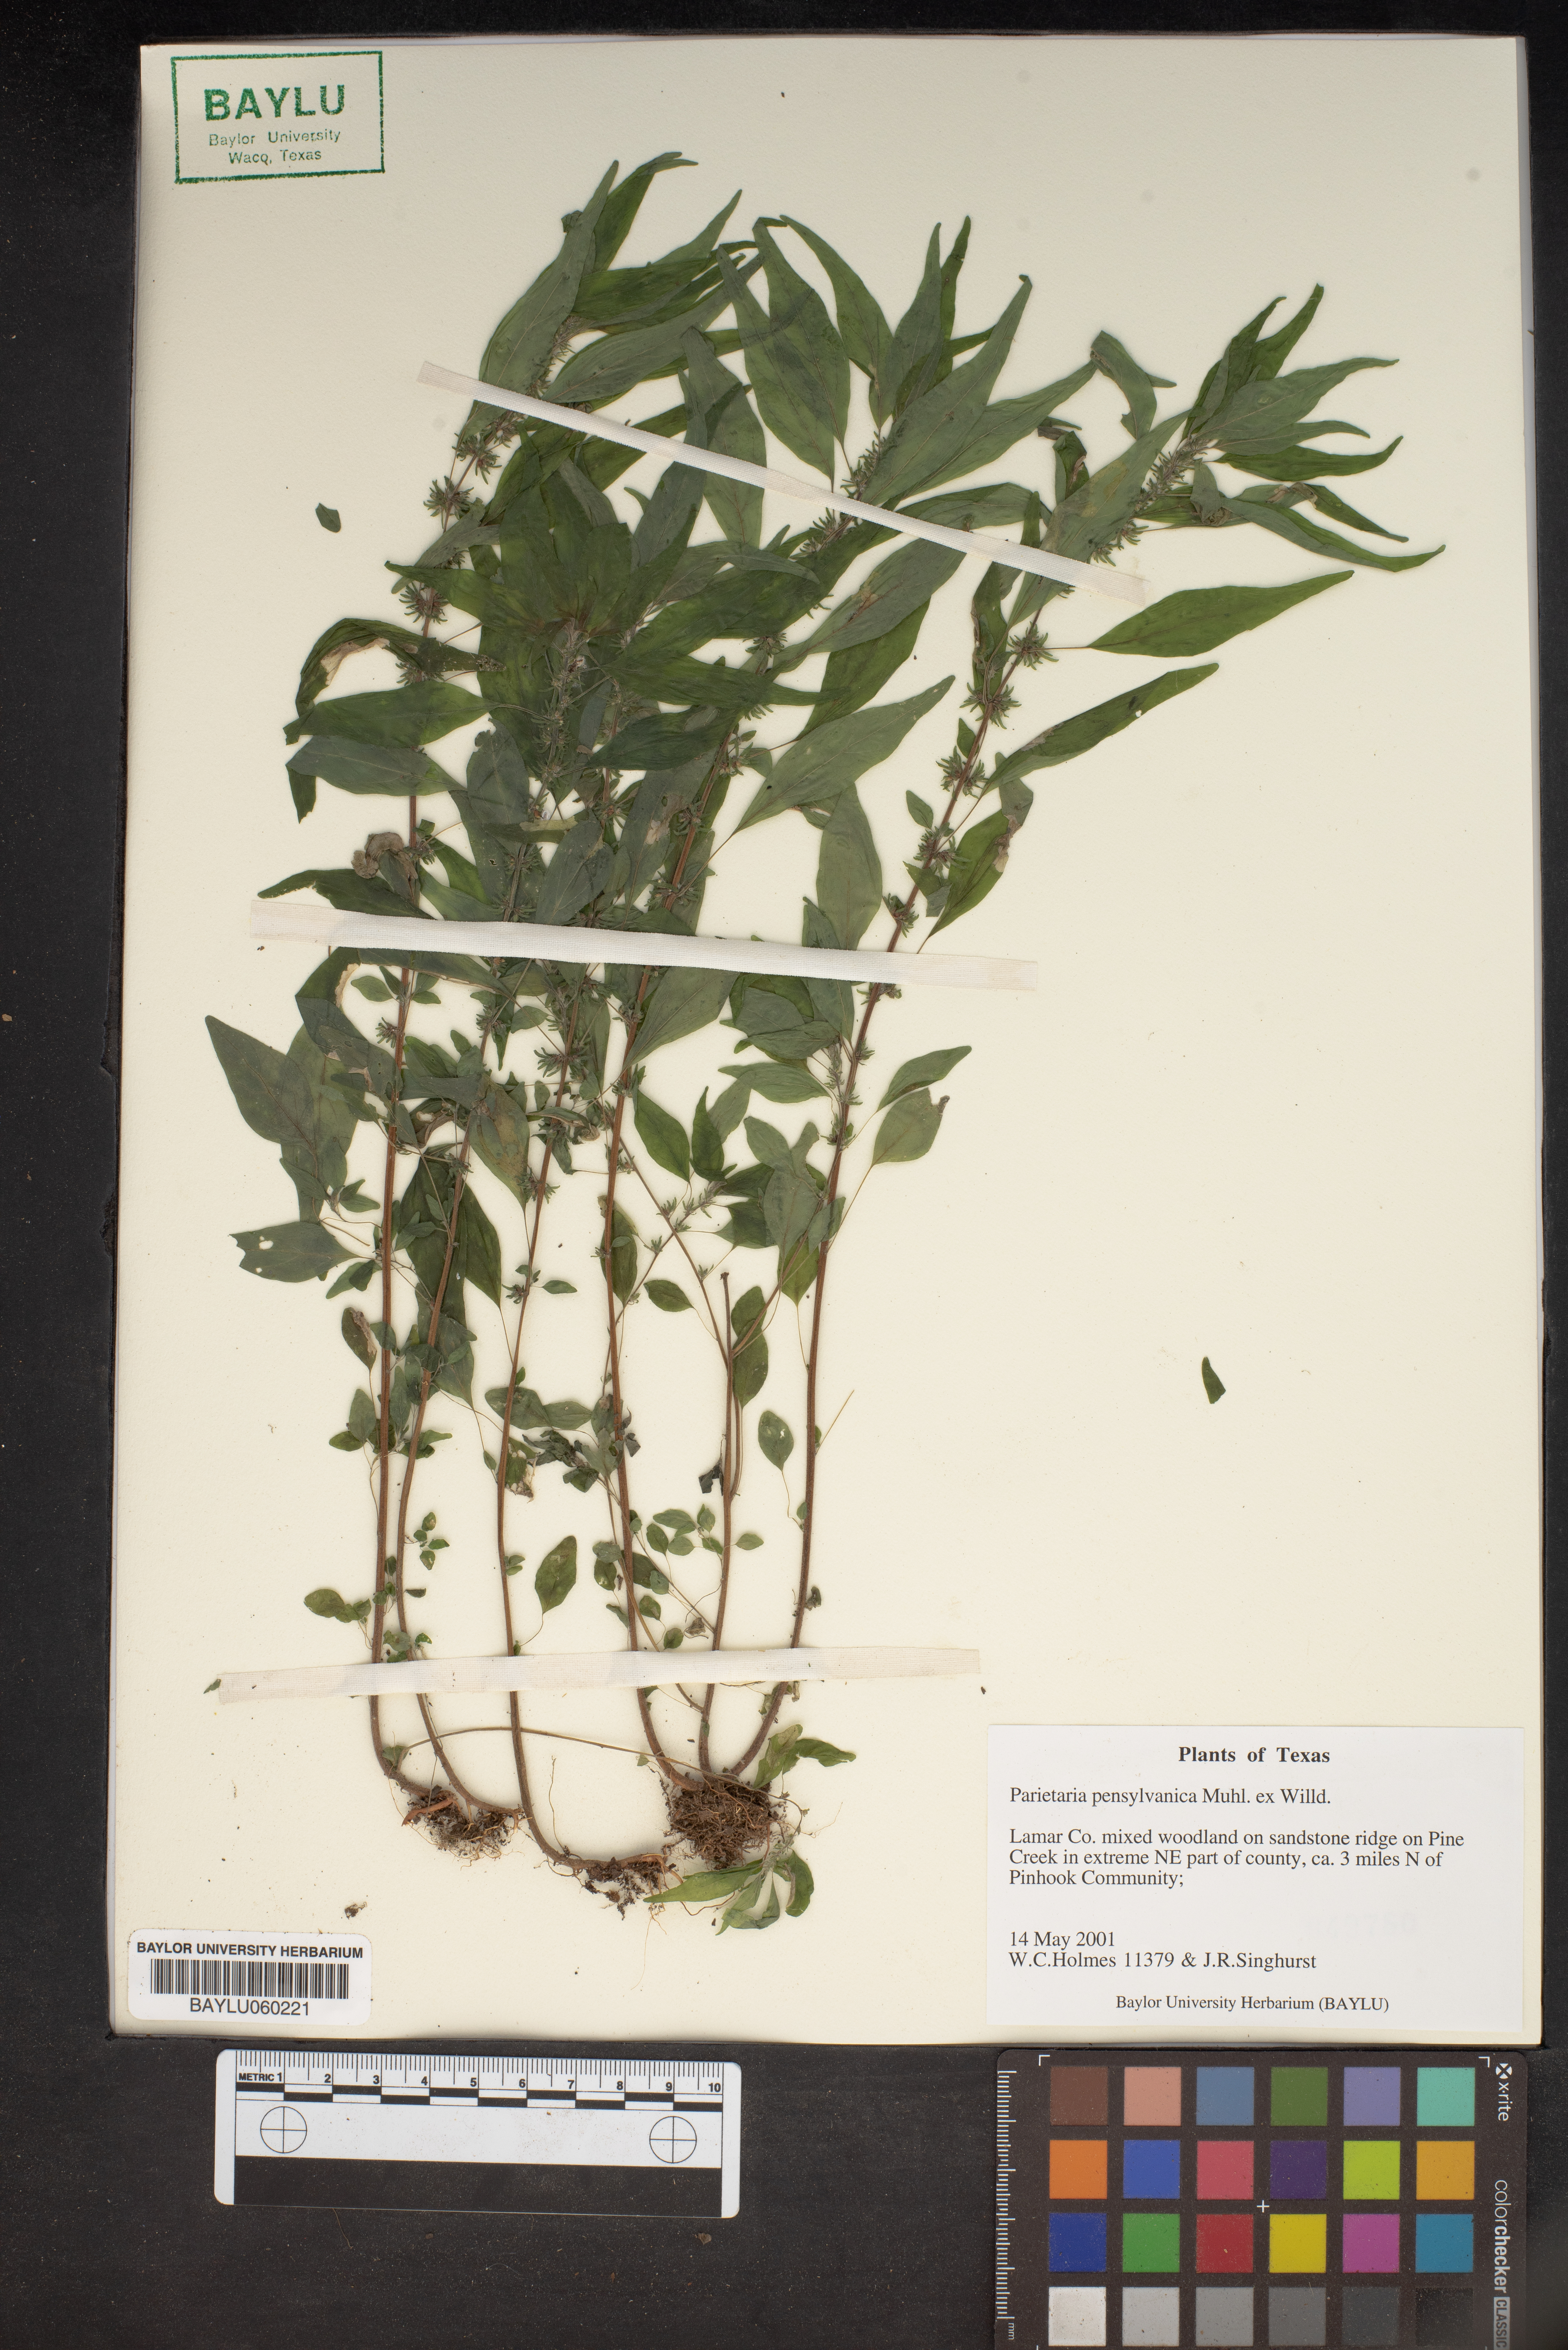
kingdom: Plantae
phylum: Tracheophyta
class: Magnoliopsida
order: Rosales
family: Urticaceae
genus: Parietaria
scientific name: Parietaria pensylvanica
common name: Pennsylvania pellitory
